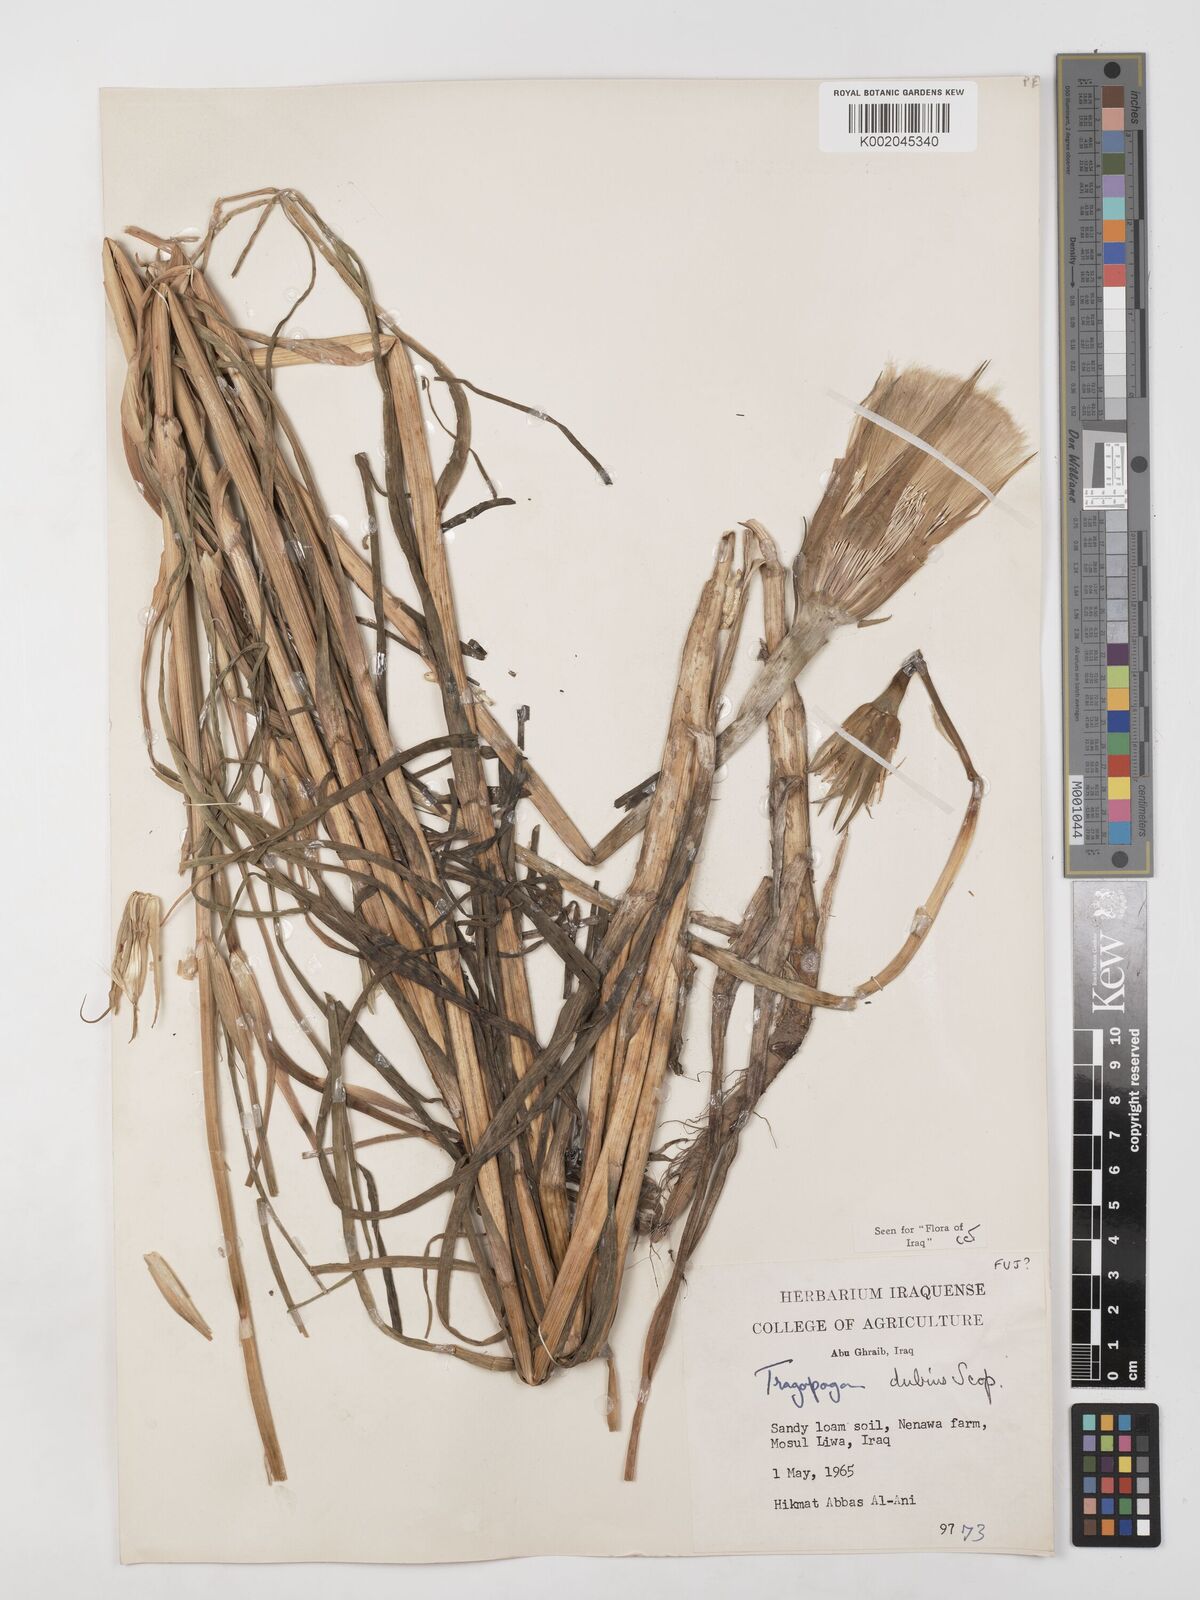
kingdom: Plantae
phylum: Tracheophyta
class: Magnoliopsida
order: Asterales
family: Asteraceae
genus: Tragopogon
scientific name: Tragopogon dubius
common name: Yellow salsify
